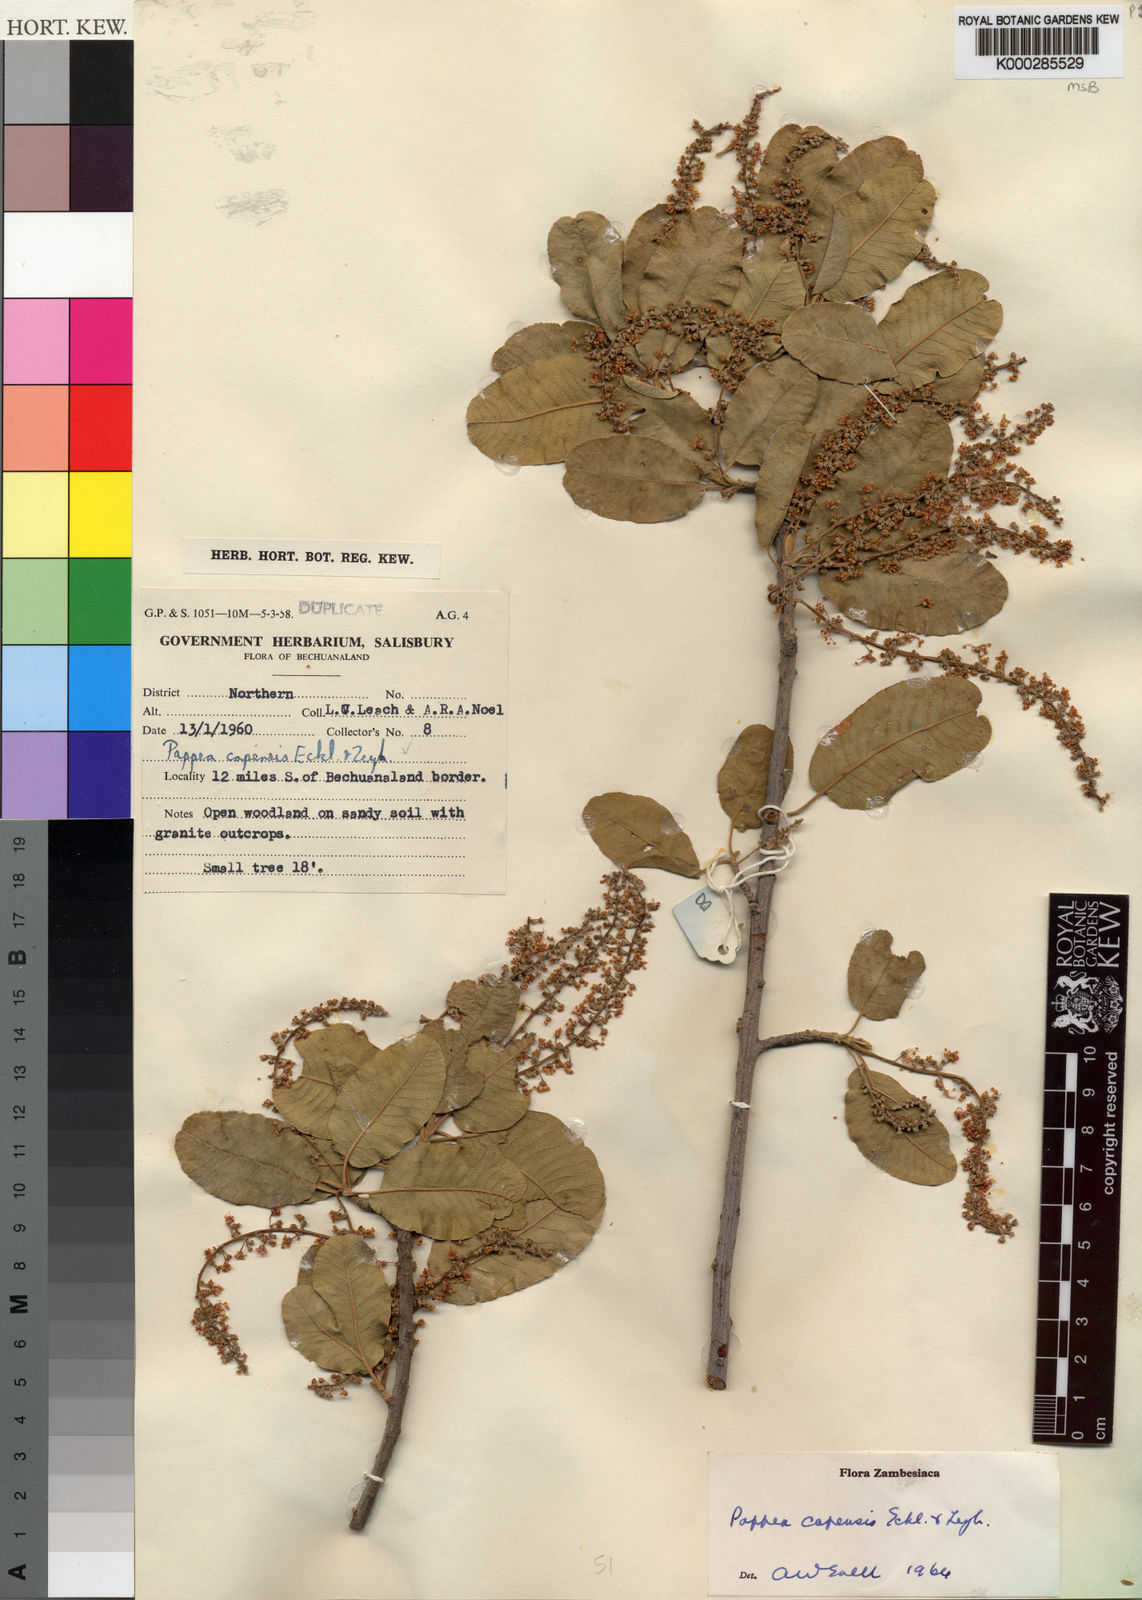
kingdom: Plantae
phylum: Tracheophyta
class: Magnoliopsida
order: Sapindales
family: Sapindaceae
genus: Pappea
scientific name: Pappea capensis
